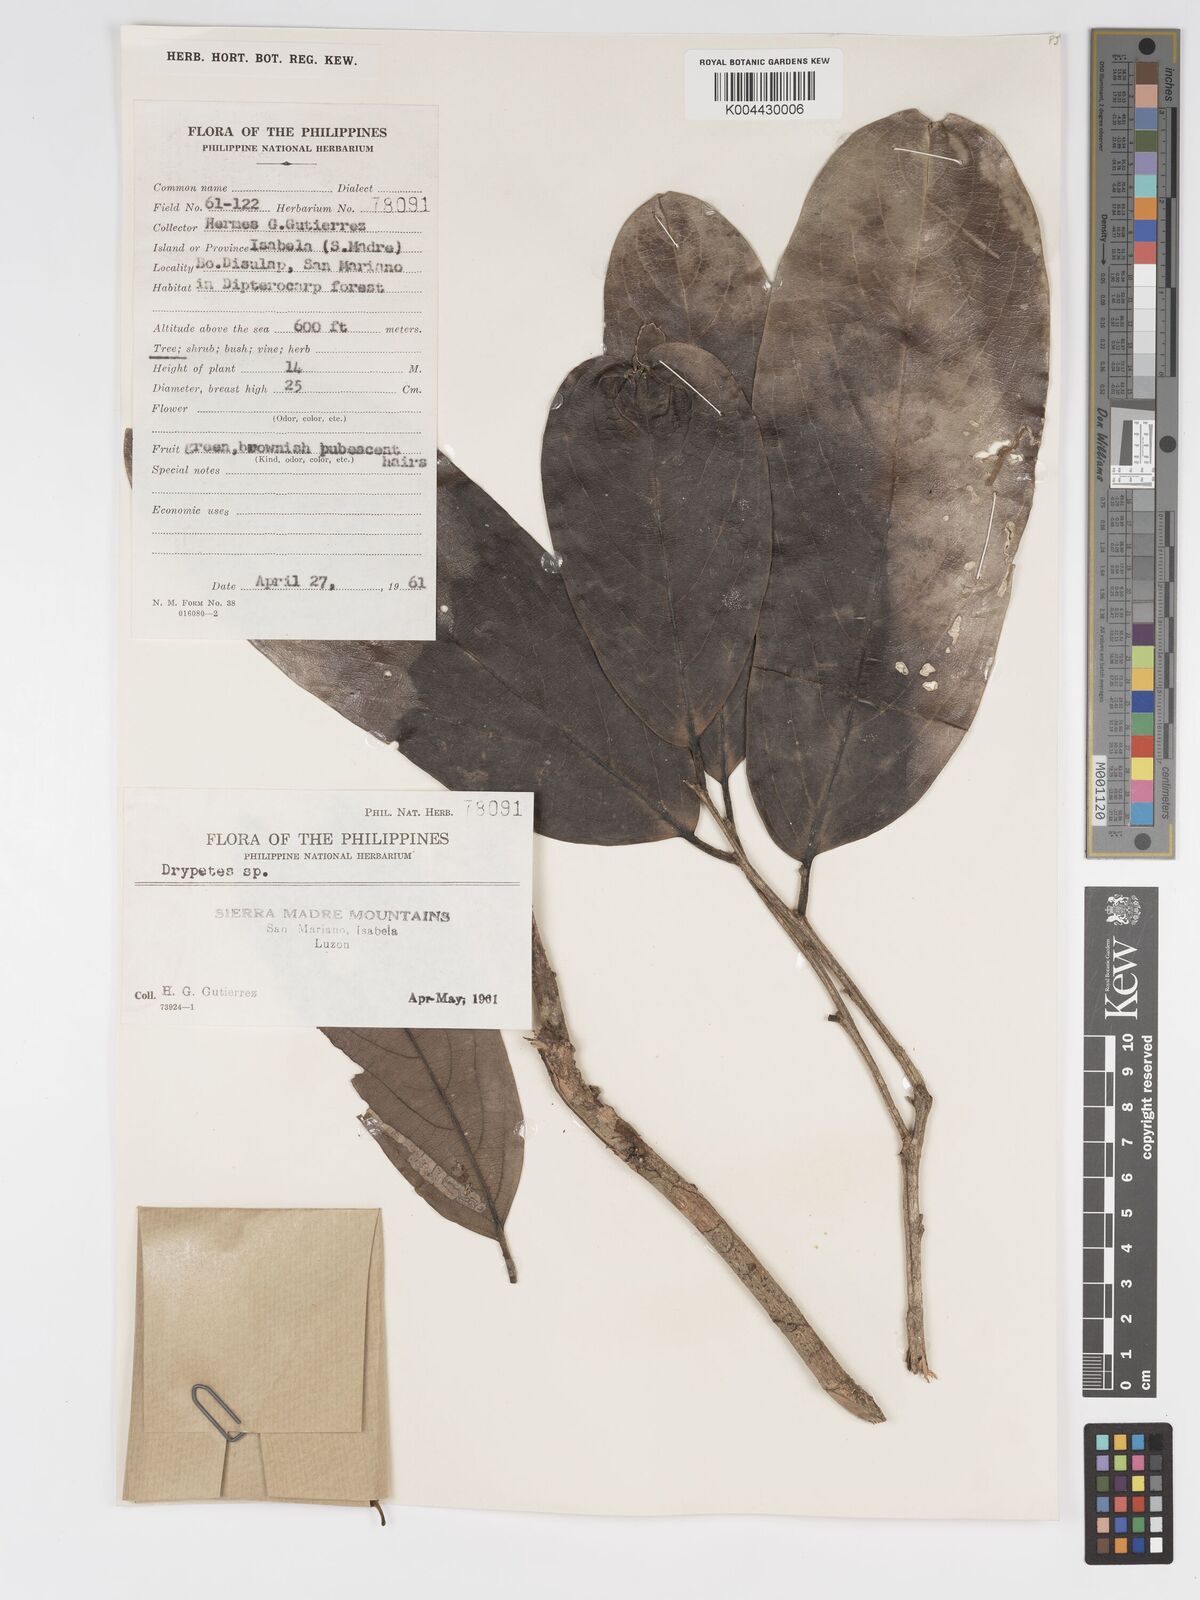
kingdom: Plantae
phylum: Tracheophyta
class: Magnoliopsida
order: Malpighiales
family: Putranjivaceae
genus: Drypetes
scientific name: Drypetes longifolia
